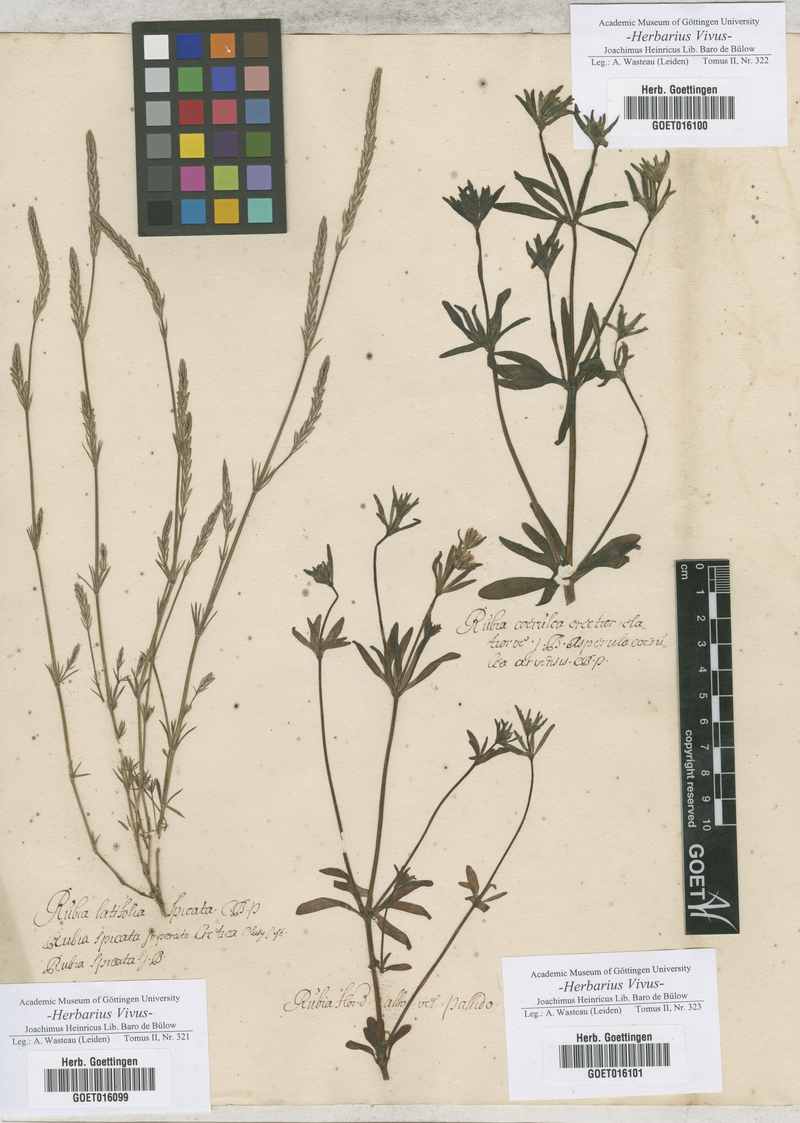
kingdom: Plantae
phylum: Tracheophyta
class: Magnoliopsida
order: Gentianales
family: Rubiaceae
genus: Crucianella
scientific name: Crucianella latifolia
